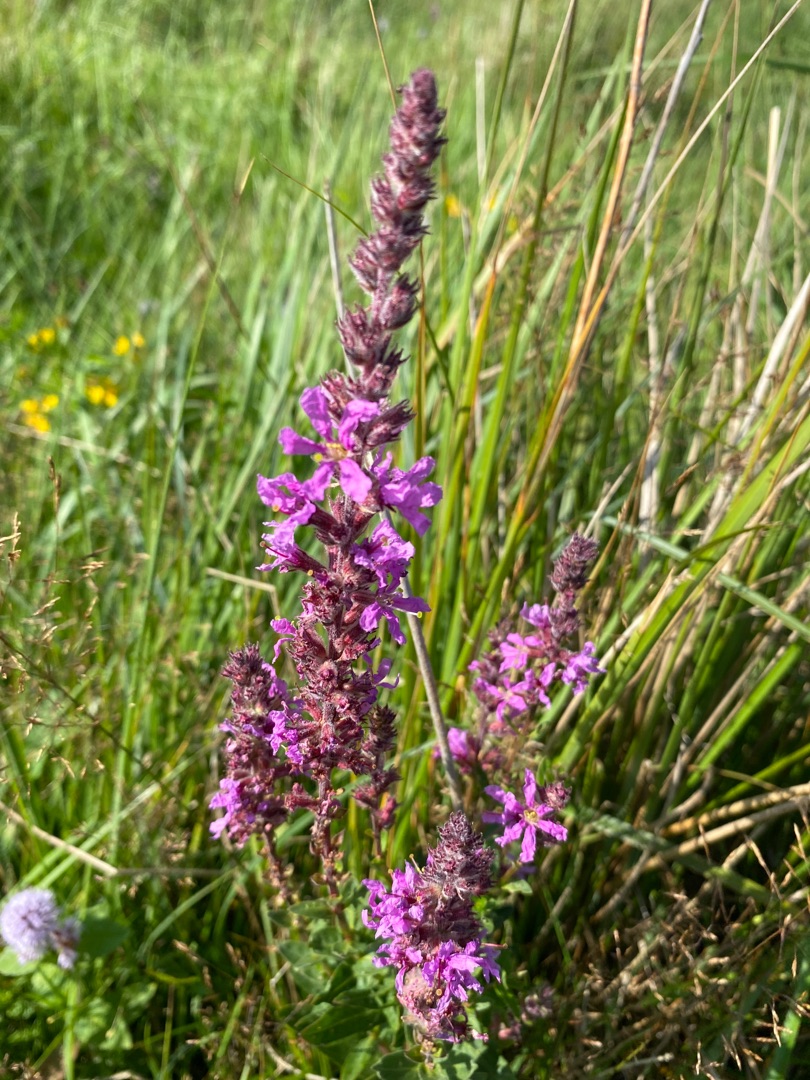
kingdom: Plantae
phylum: Tracheophyta
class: Magnoliopsida
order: Myrtales
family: Lythraceae
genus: Lythrum
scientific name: Lythrum salicaria
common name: Kattehale
